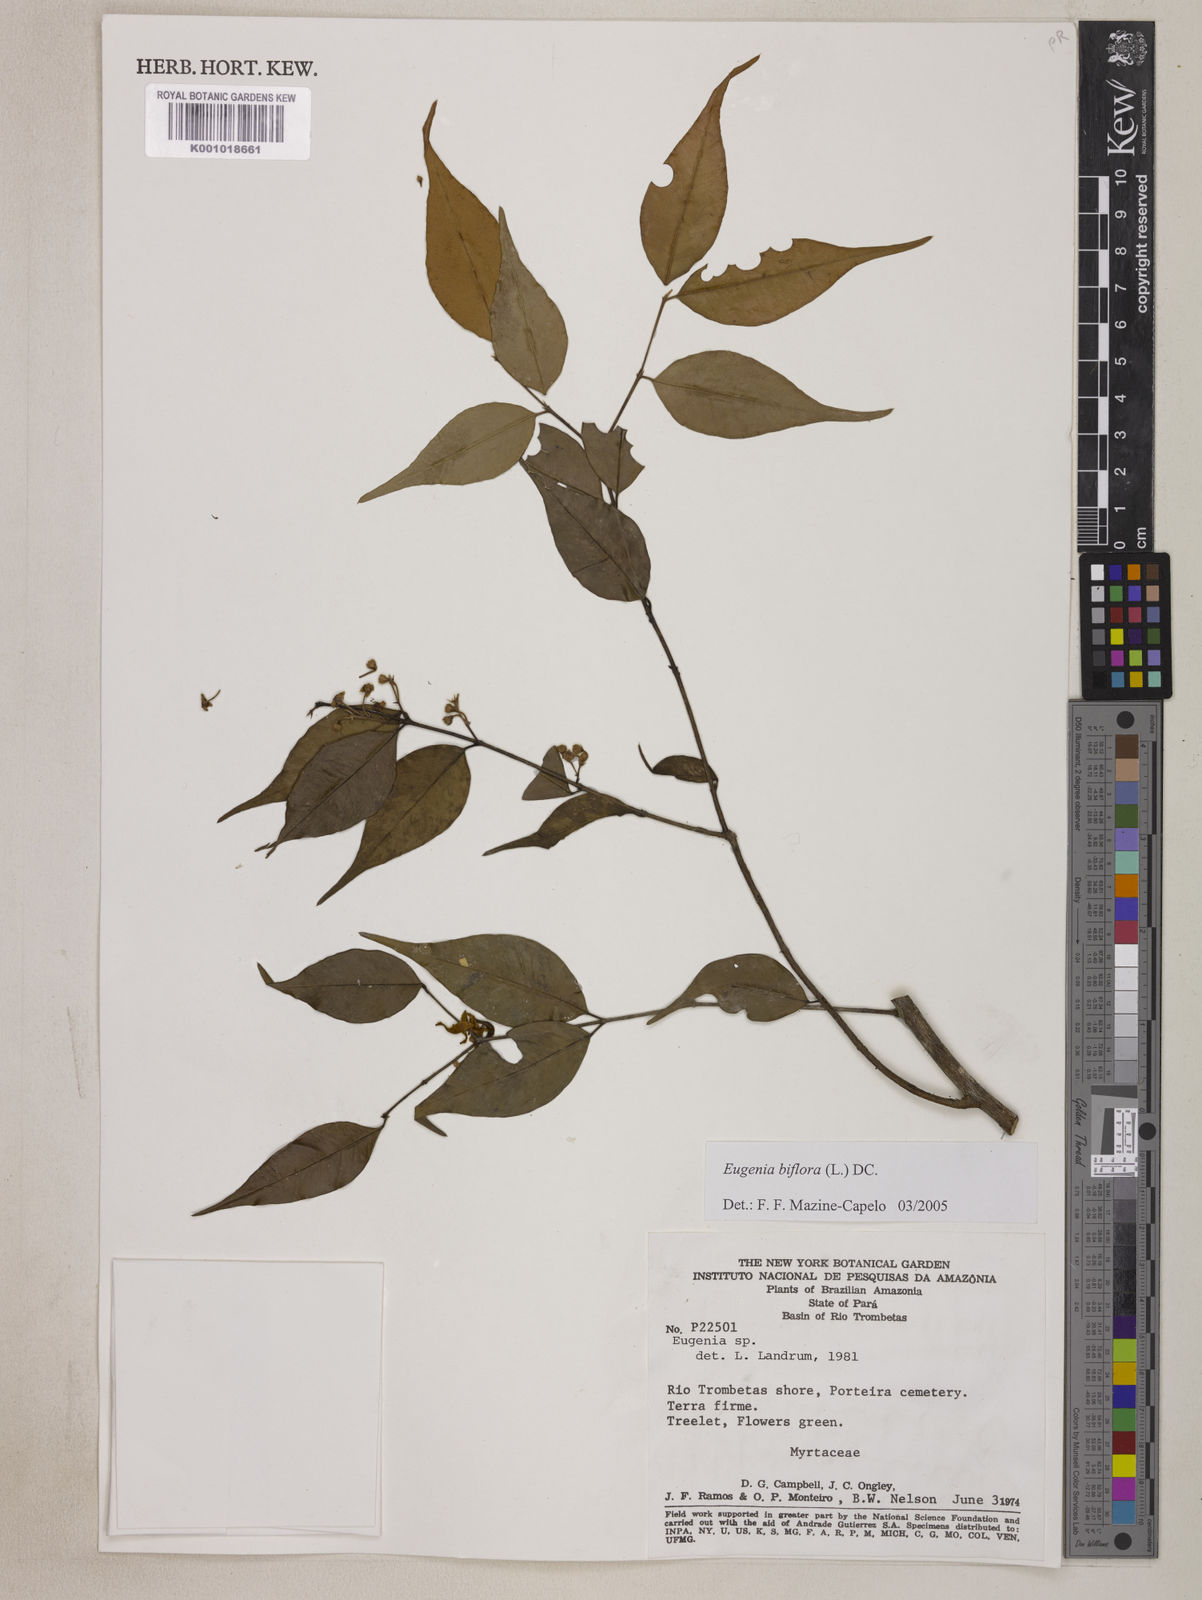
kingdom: Plantae
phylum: Tracheophyta
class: Magnoliopsida
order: Myrtales
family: Myrtaceae
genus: Eugenia
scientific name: Eugenia biflora
